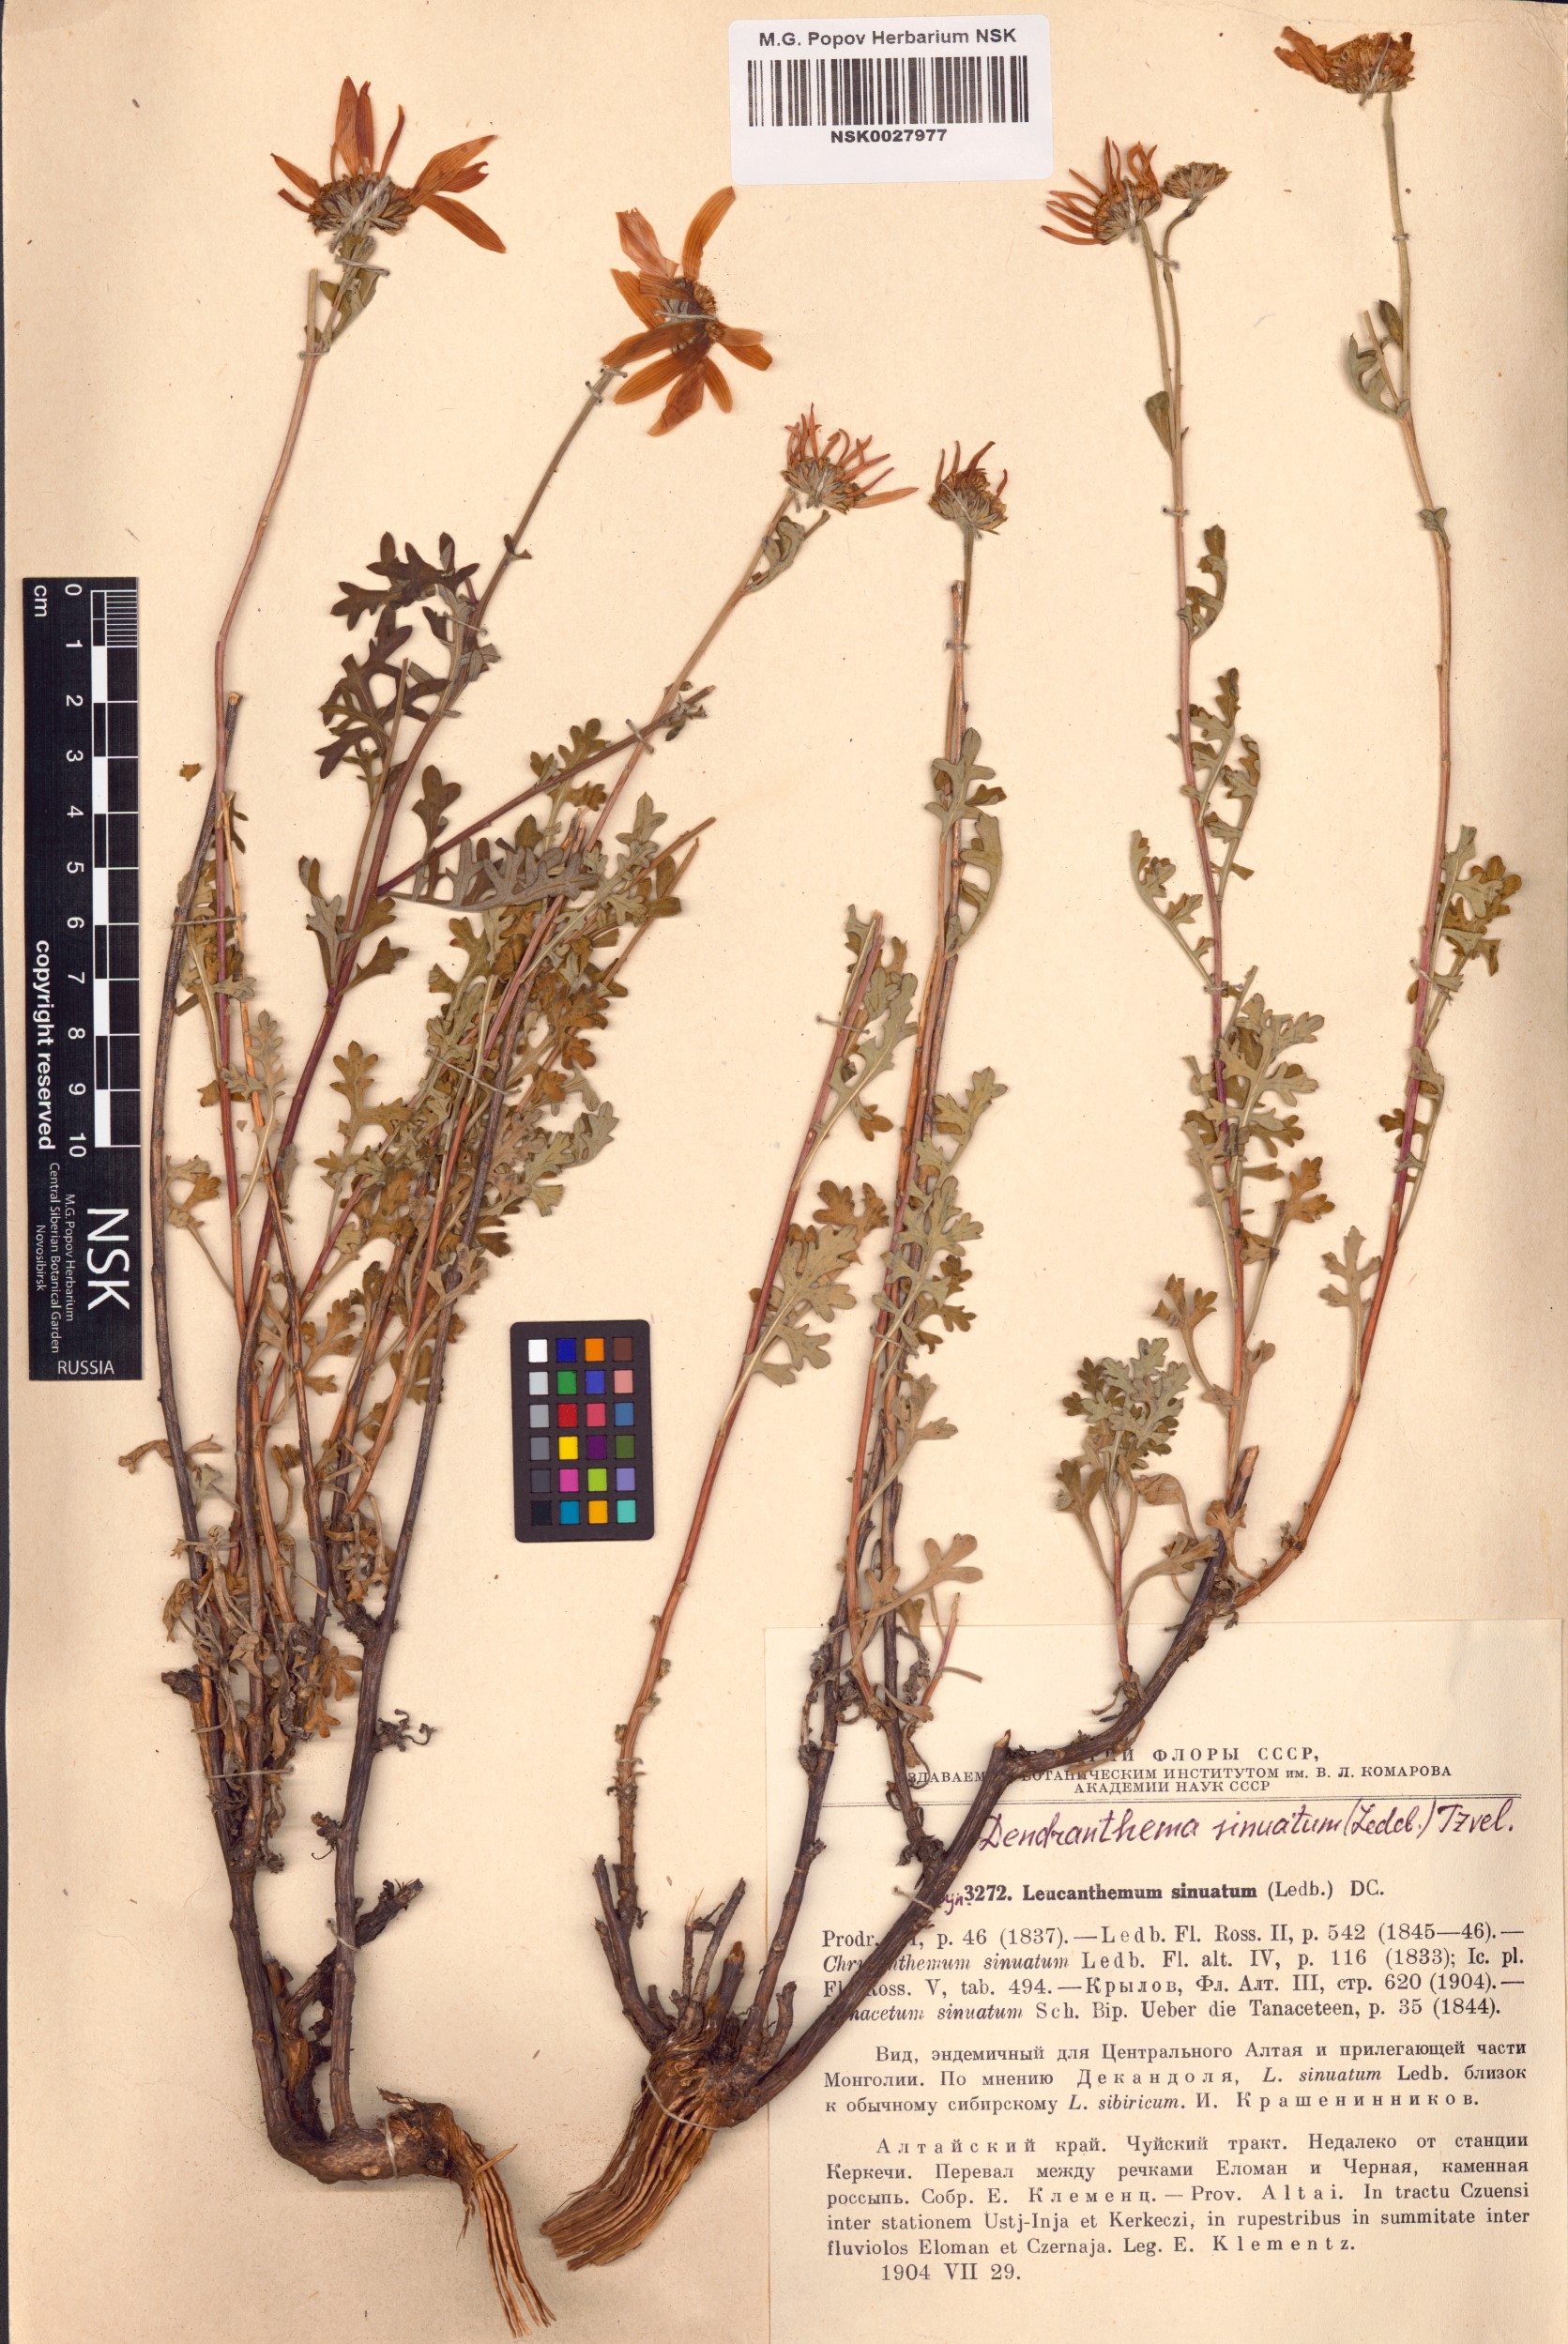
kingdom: Plantae
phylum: Tracheophyta
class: Magnoliopsida
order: Asterales
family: Asteraceae
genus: Chrysanthemum
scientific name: Chrysanthemum sinuatum
